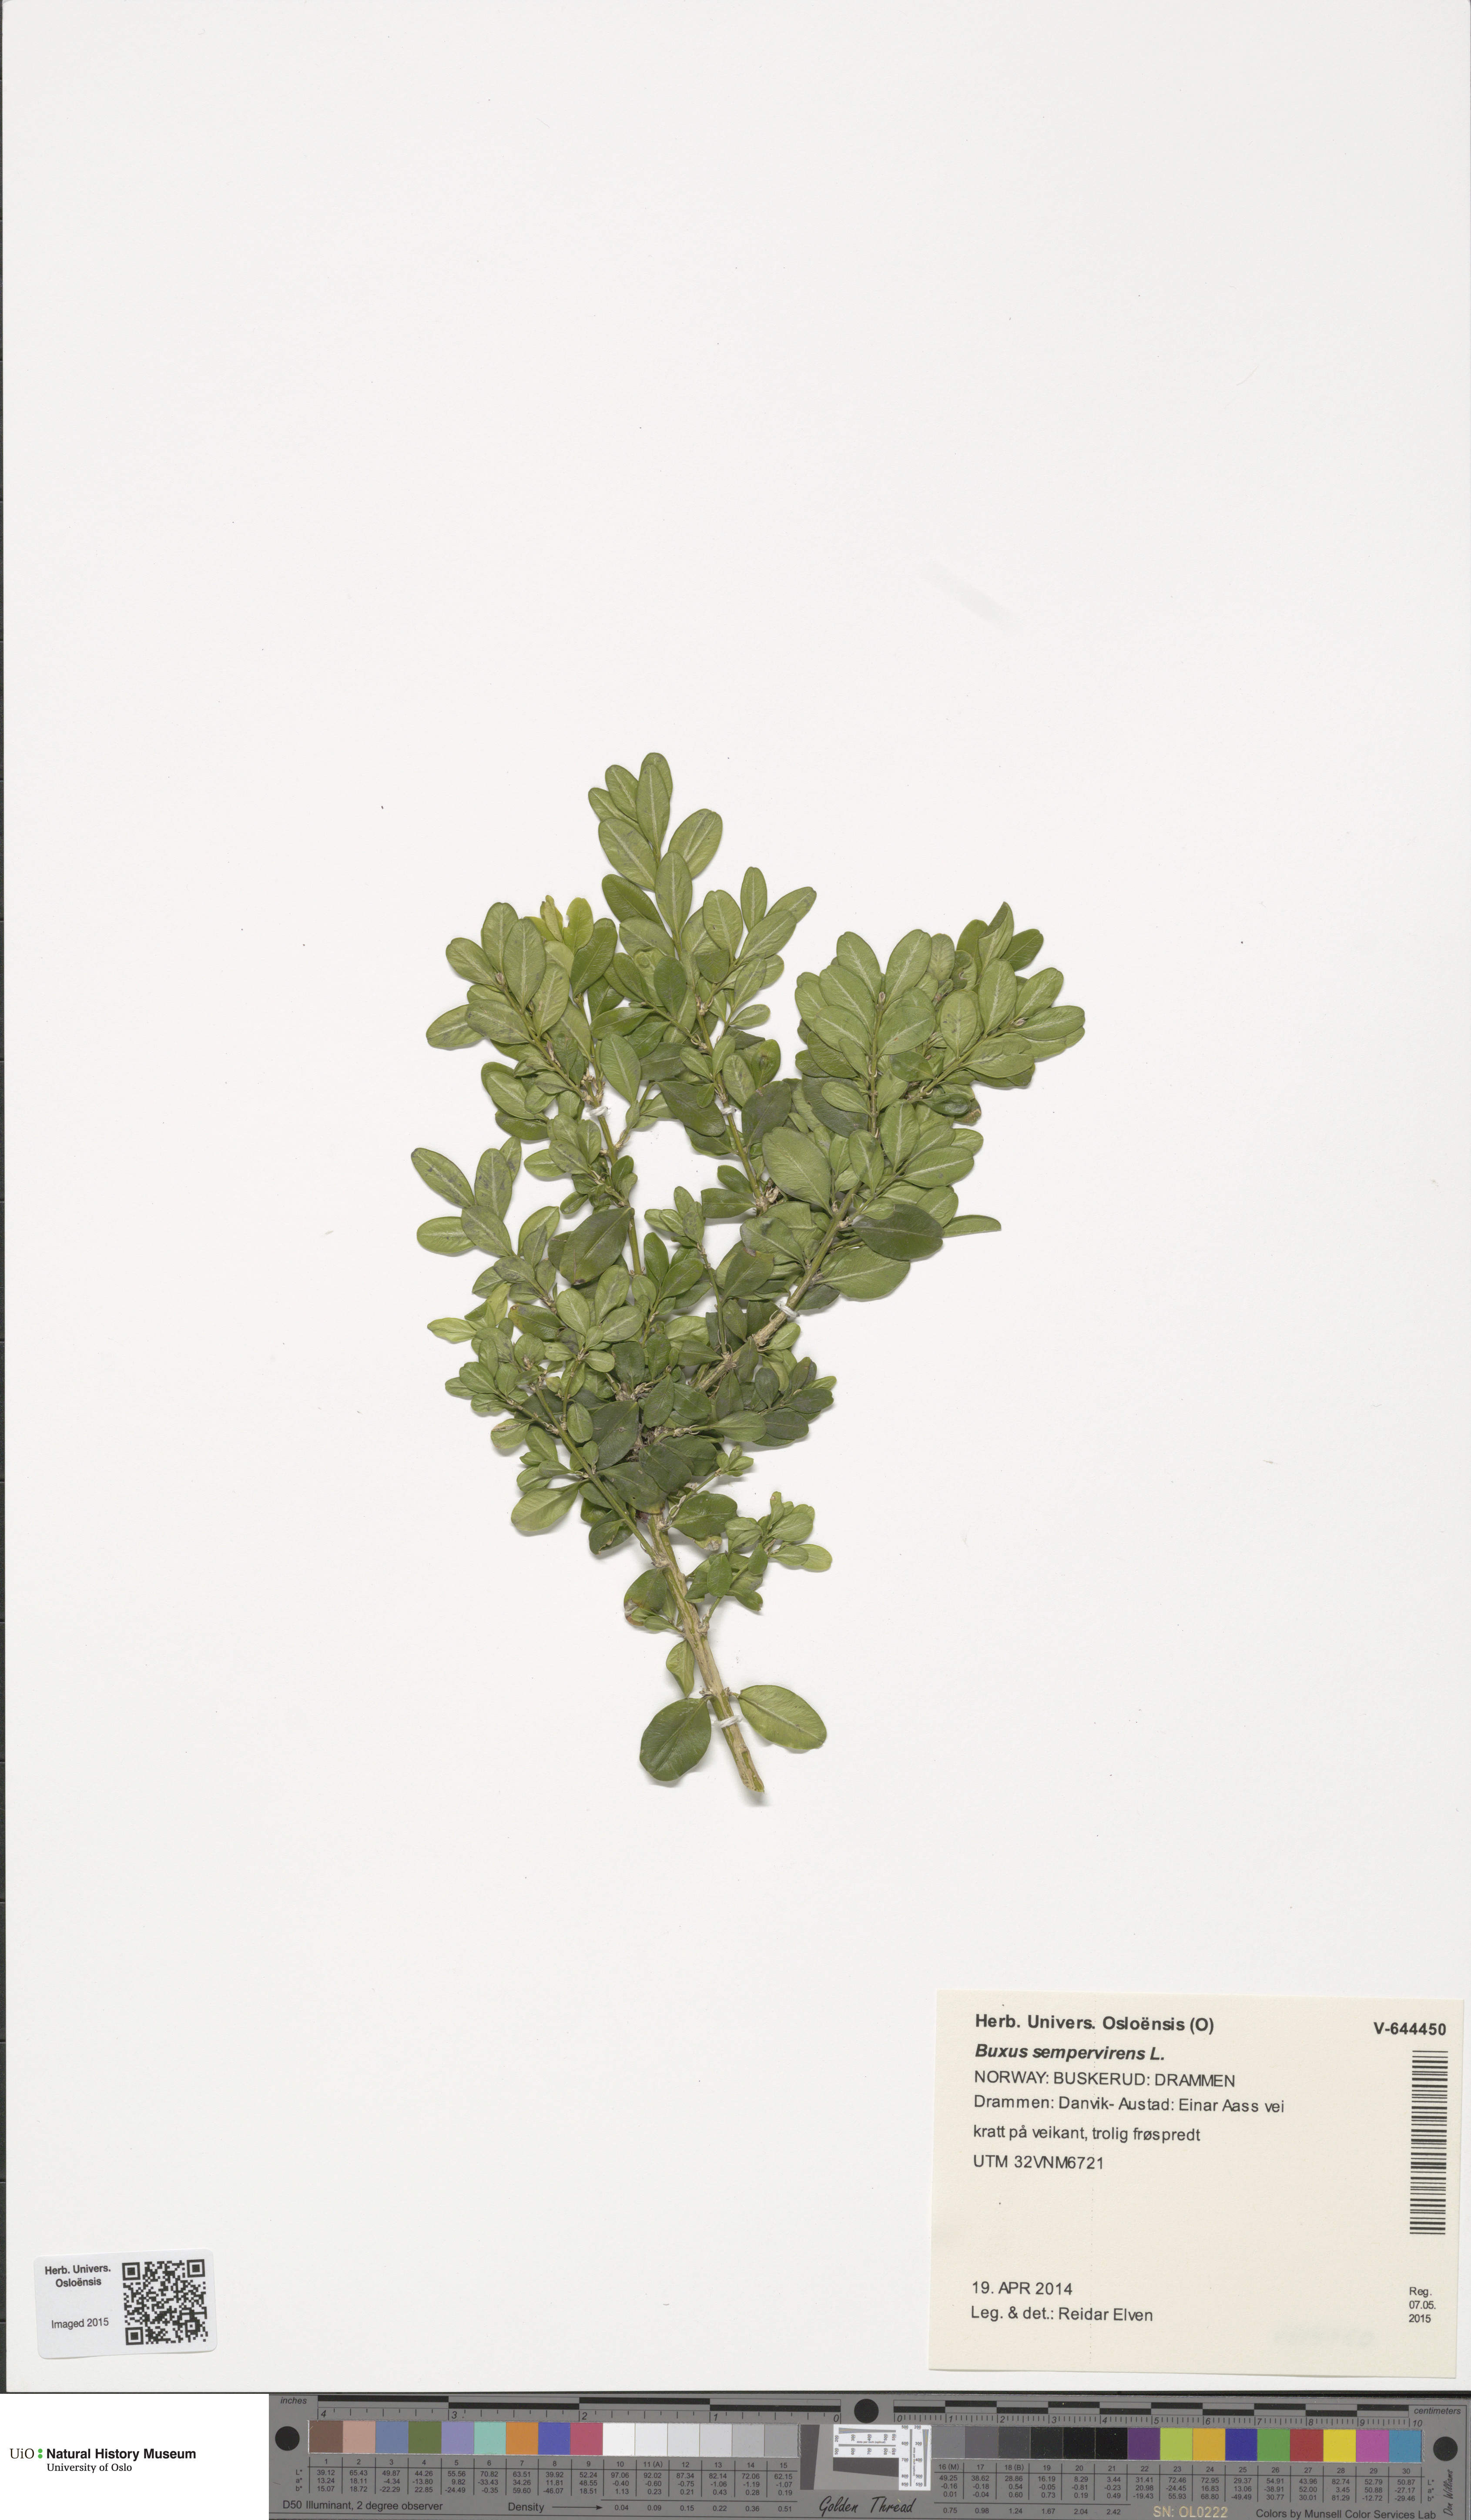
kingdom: Plantae
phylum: Tracheophyta
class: Magnoliopsida
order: Buxales
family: Buxaceae
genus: Buxus
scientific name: Buxus sempervirens
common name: Box
